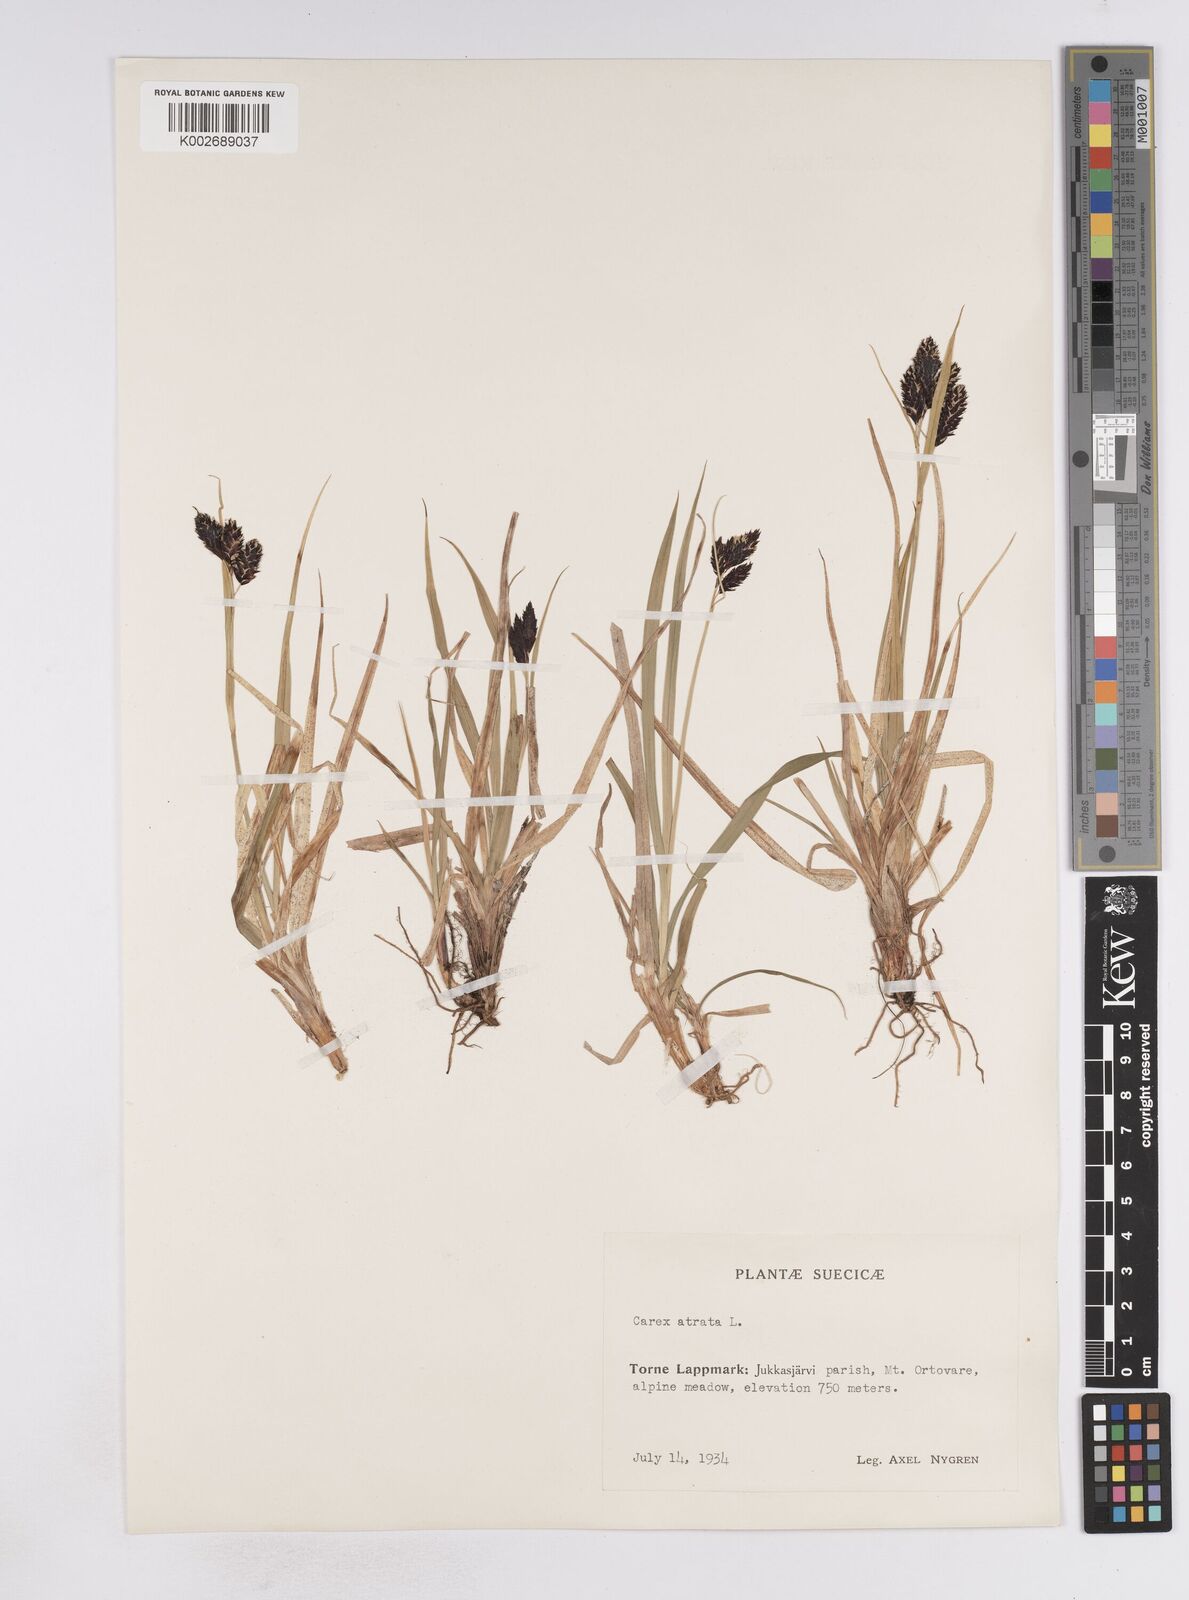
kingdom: Plantae
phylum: Tracheophyta
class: Liliopsida
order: Poales
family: Cyperaceae
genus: Carex
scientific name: Carex atrata
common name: Black alpine sedge
